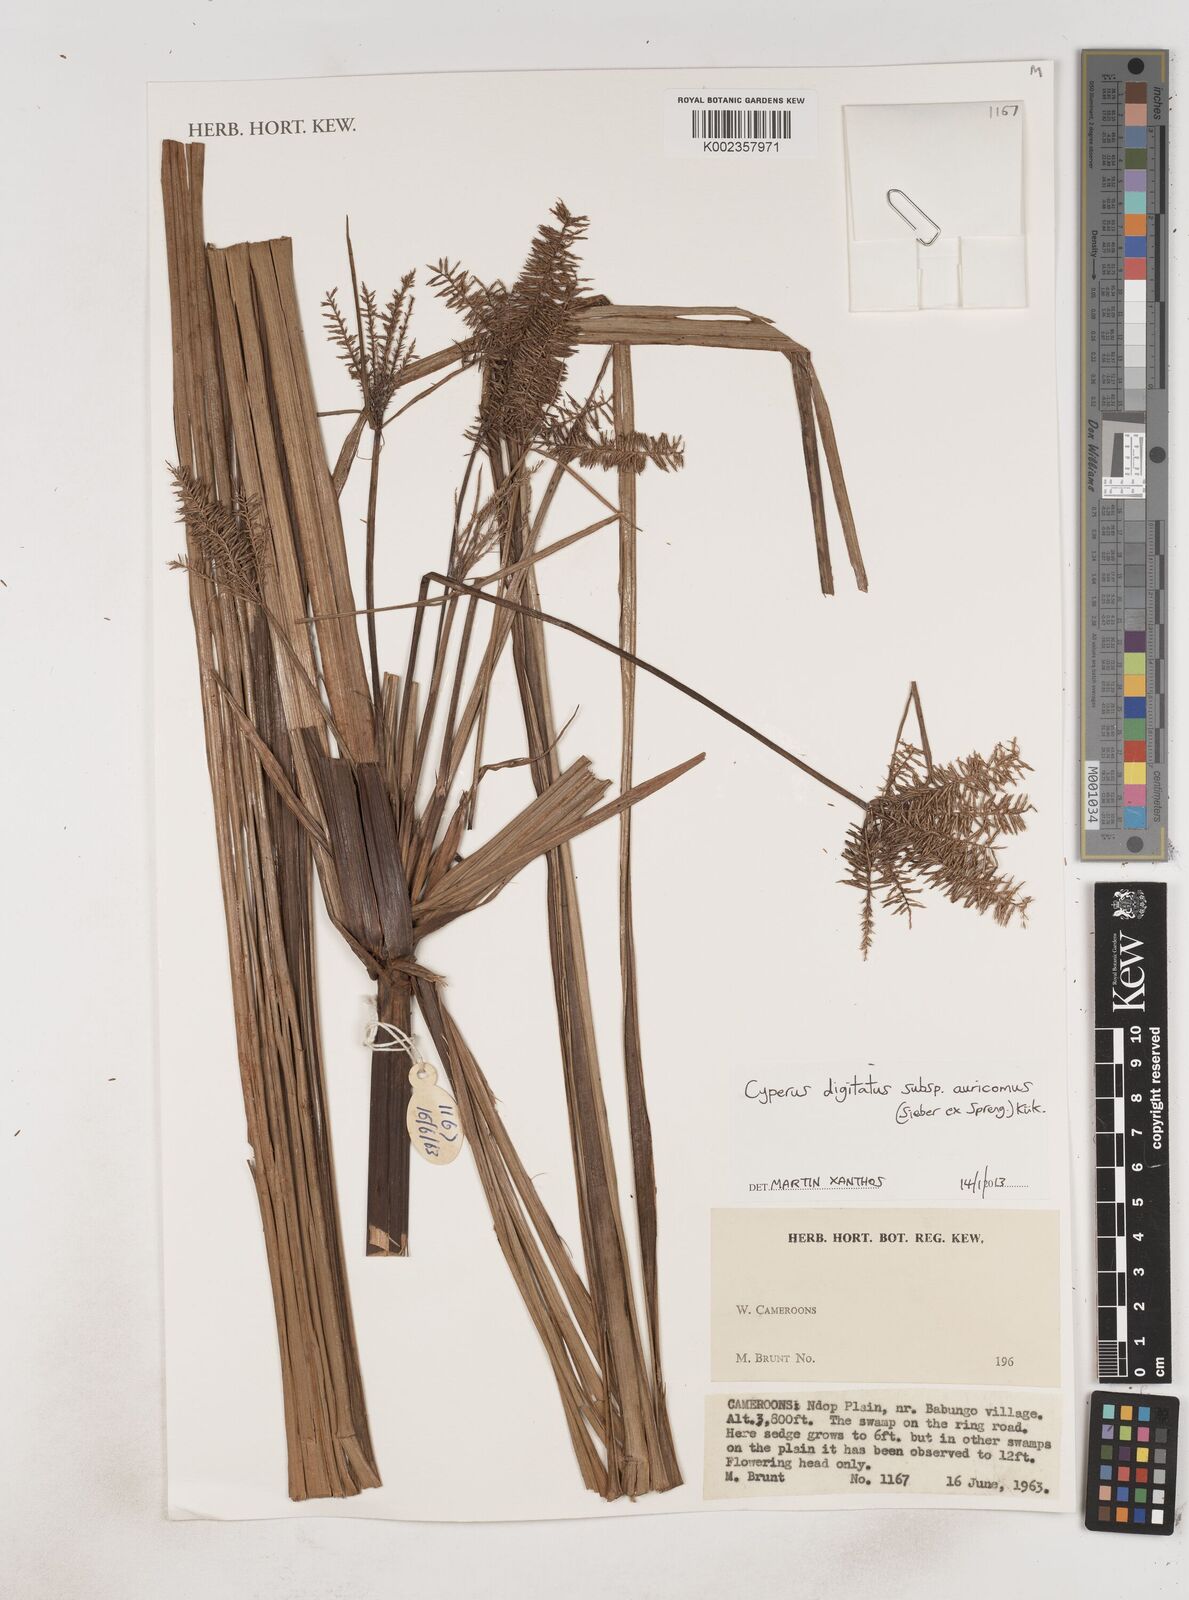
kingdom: Plantae
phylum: Tracheophyta
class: Liliopsida
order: Poales
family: Cyperaceae
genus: Cyperus
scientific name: Cyperus digitatus
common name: Finger flatsedge
